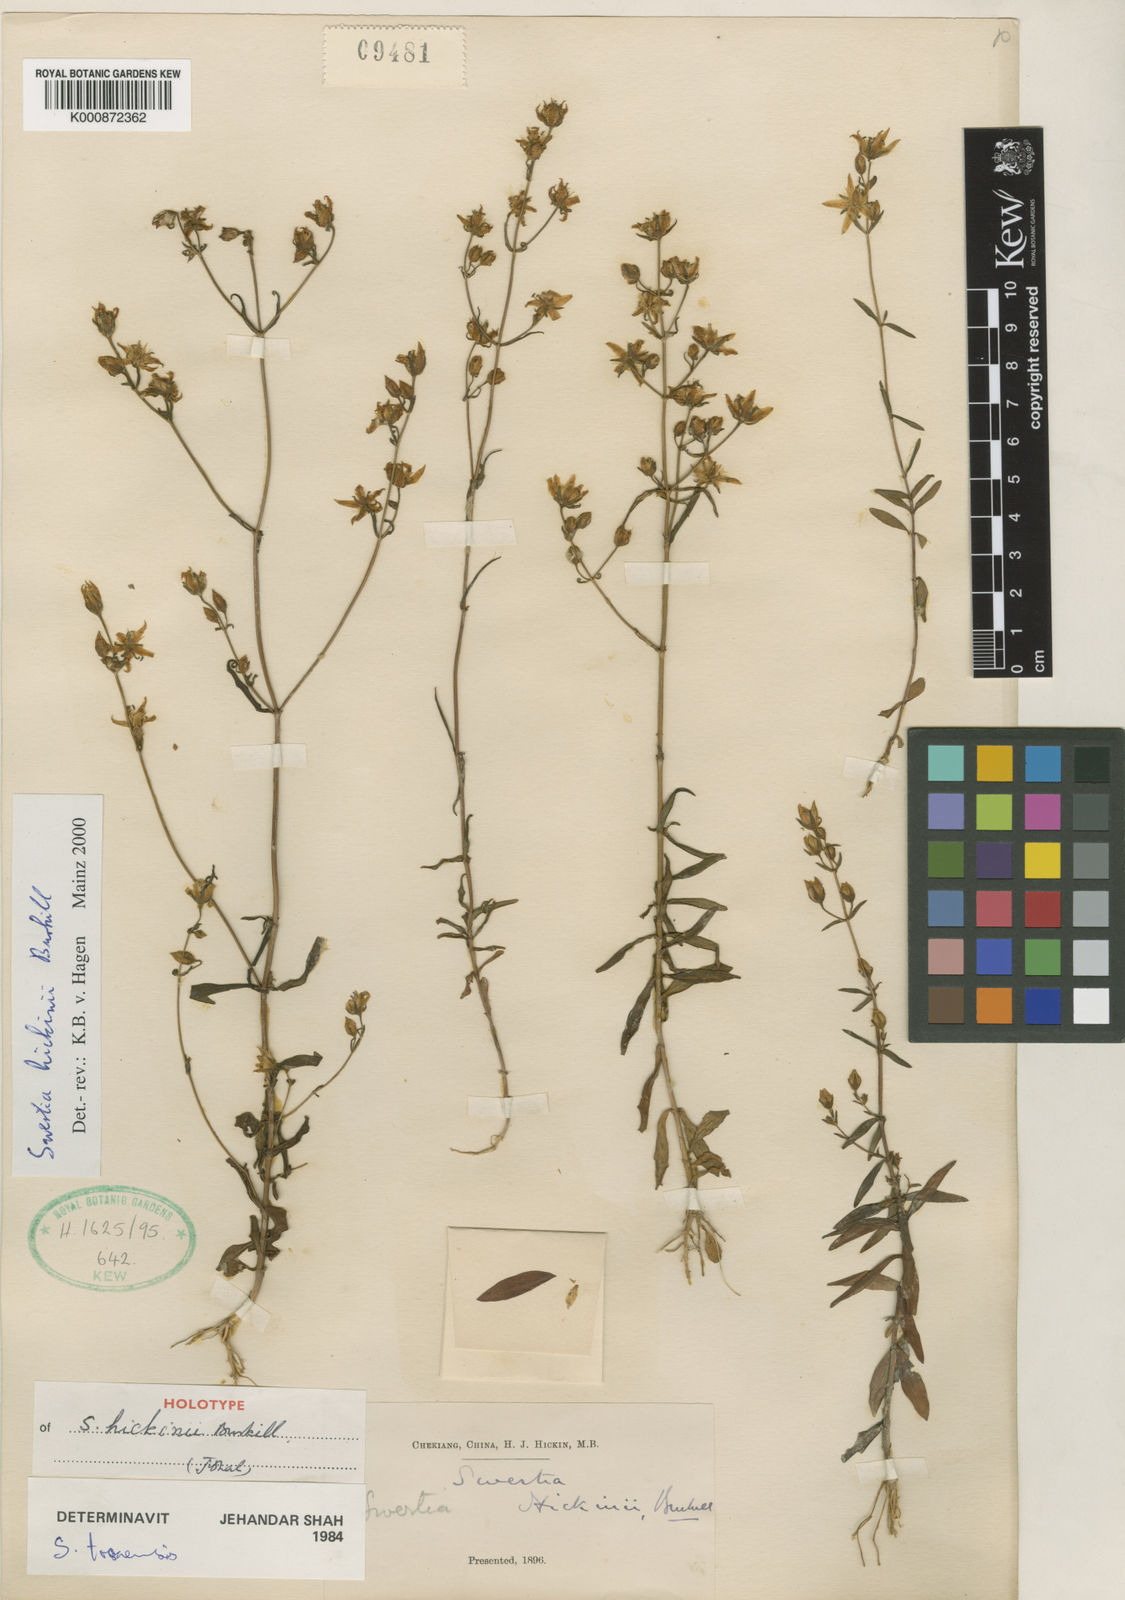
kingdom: Plantae
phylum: Tracheophyta
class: Magnoliopsida
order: Gentianales
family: Gentianaceae
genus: Swertia
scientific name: Swertia hickinii
